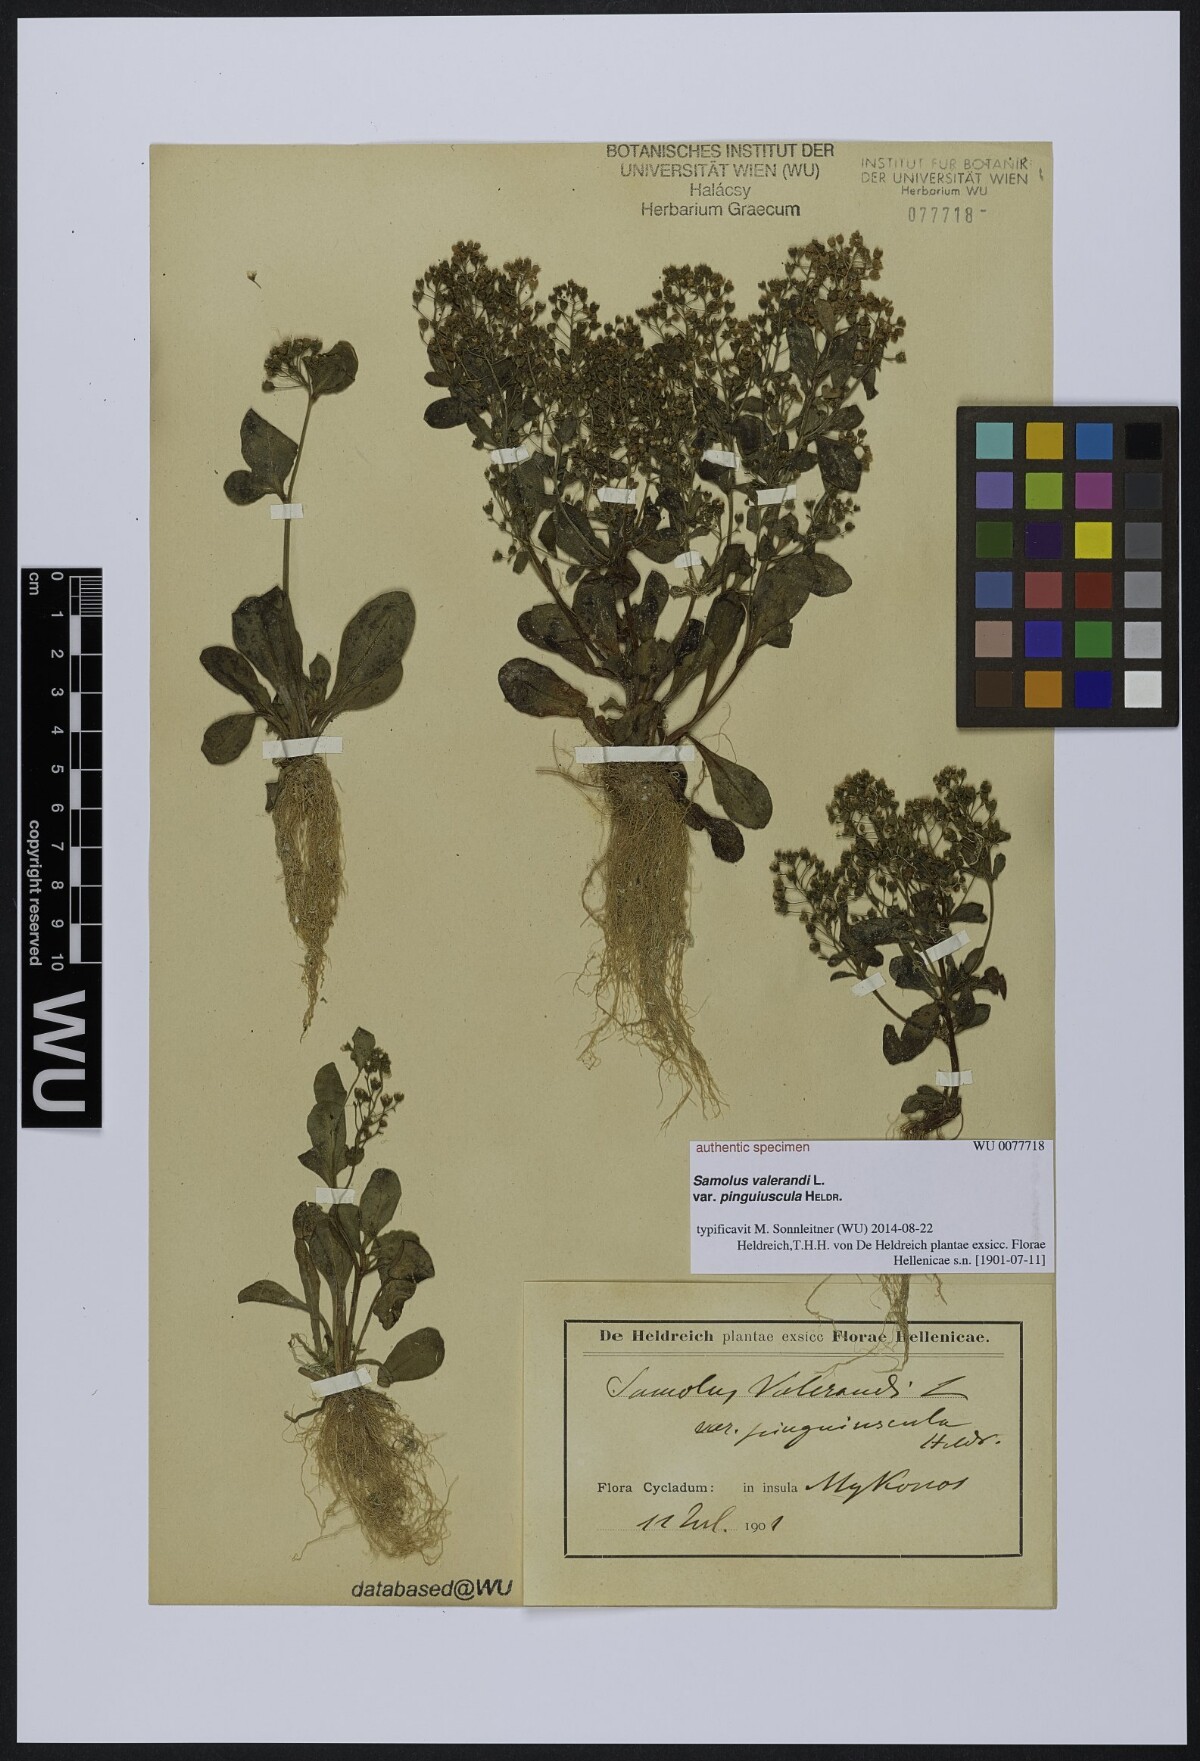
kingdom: Plantae
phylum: Tracheophyta
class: Magnoliopsida
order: Ericales
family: Primulaceae
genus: Samolus
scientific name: Samolus valerandi
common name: Brookweed
